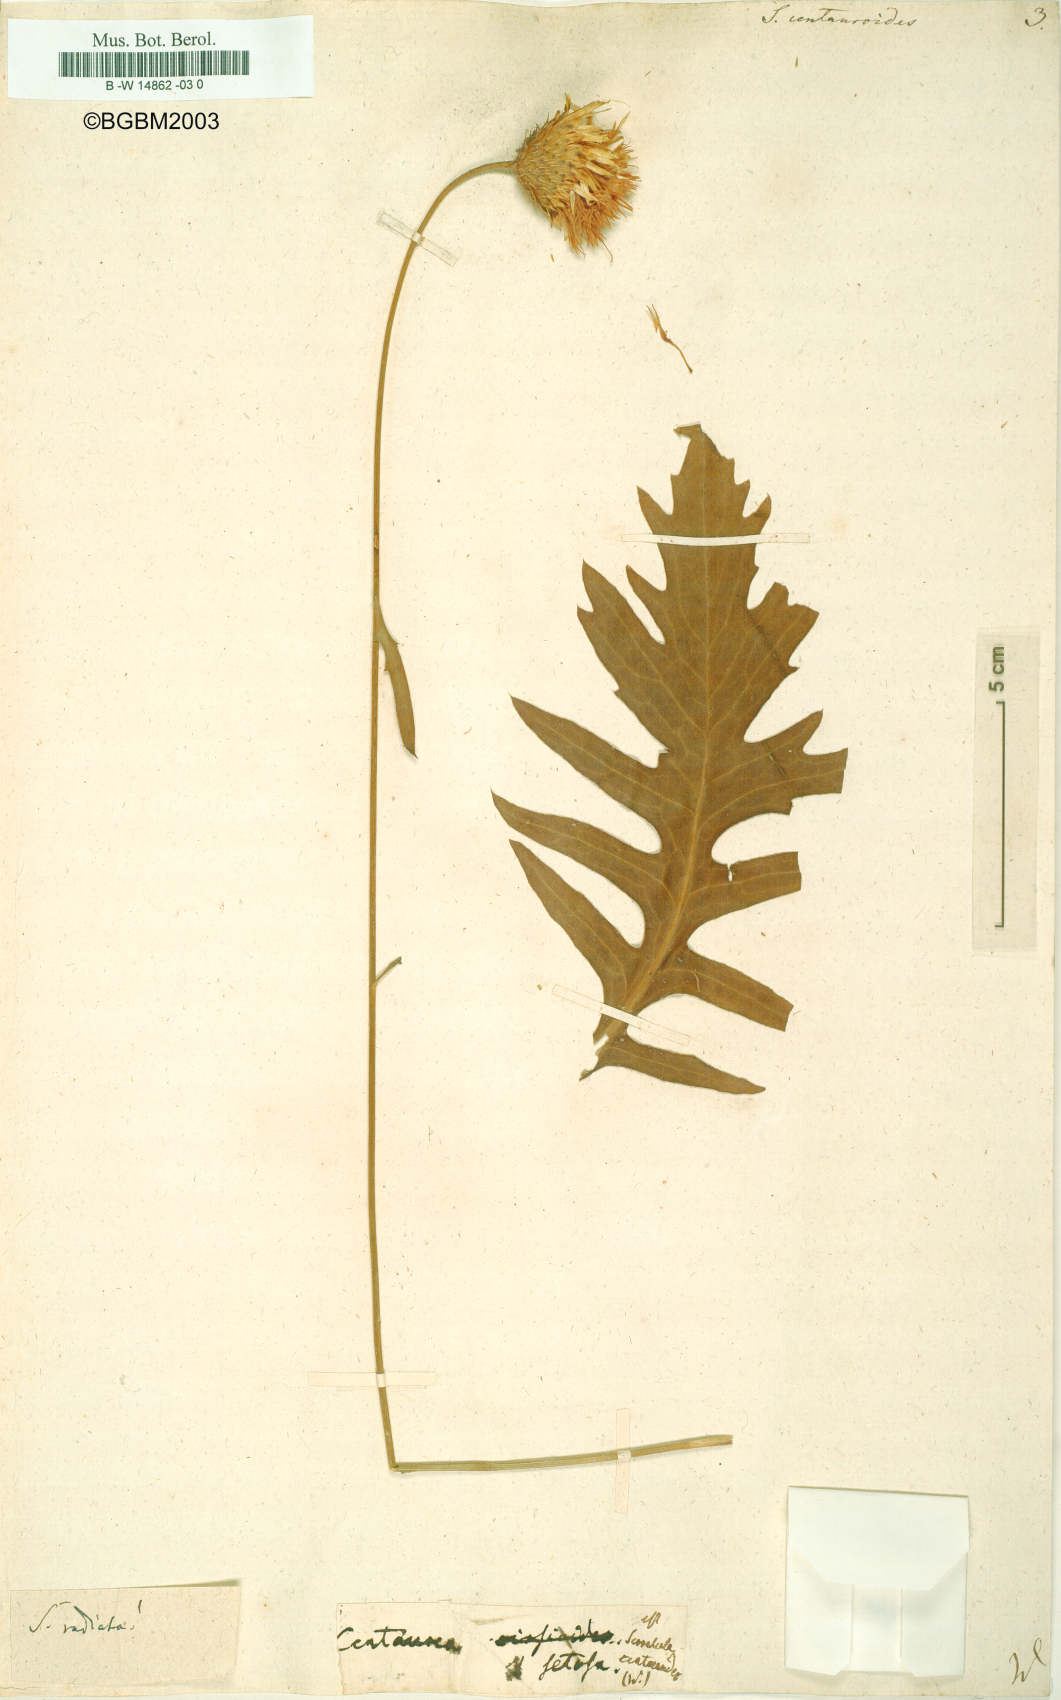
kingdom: Plantae
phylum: Tracheophyta
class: Magnoliopsida
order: Asterales
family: Asteraceae
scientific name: Asteraceae
